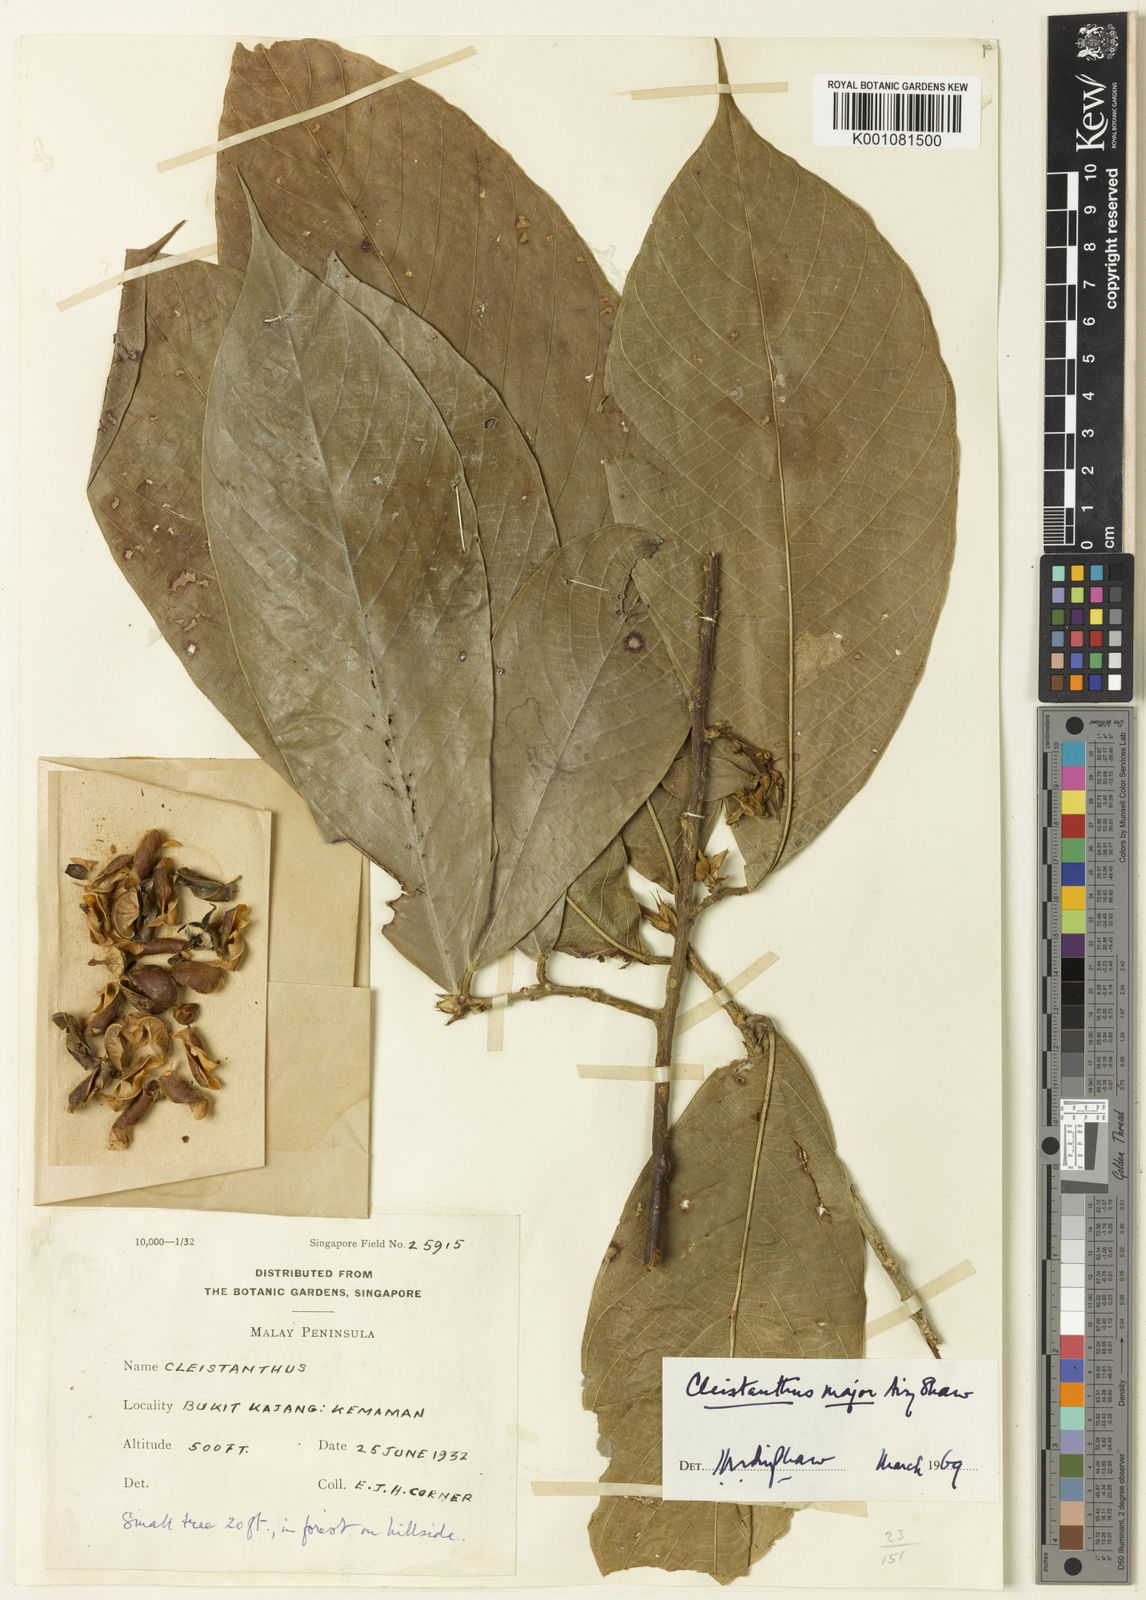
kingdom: Plantae
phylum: Tracheophyta
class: Magnoliopsida
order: Malpighiales
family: Phyllanthaceae
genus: Cleistanthus
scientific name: Cleistanthus major
